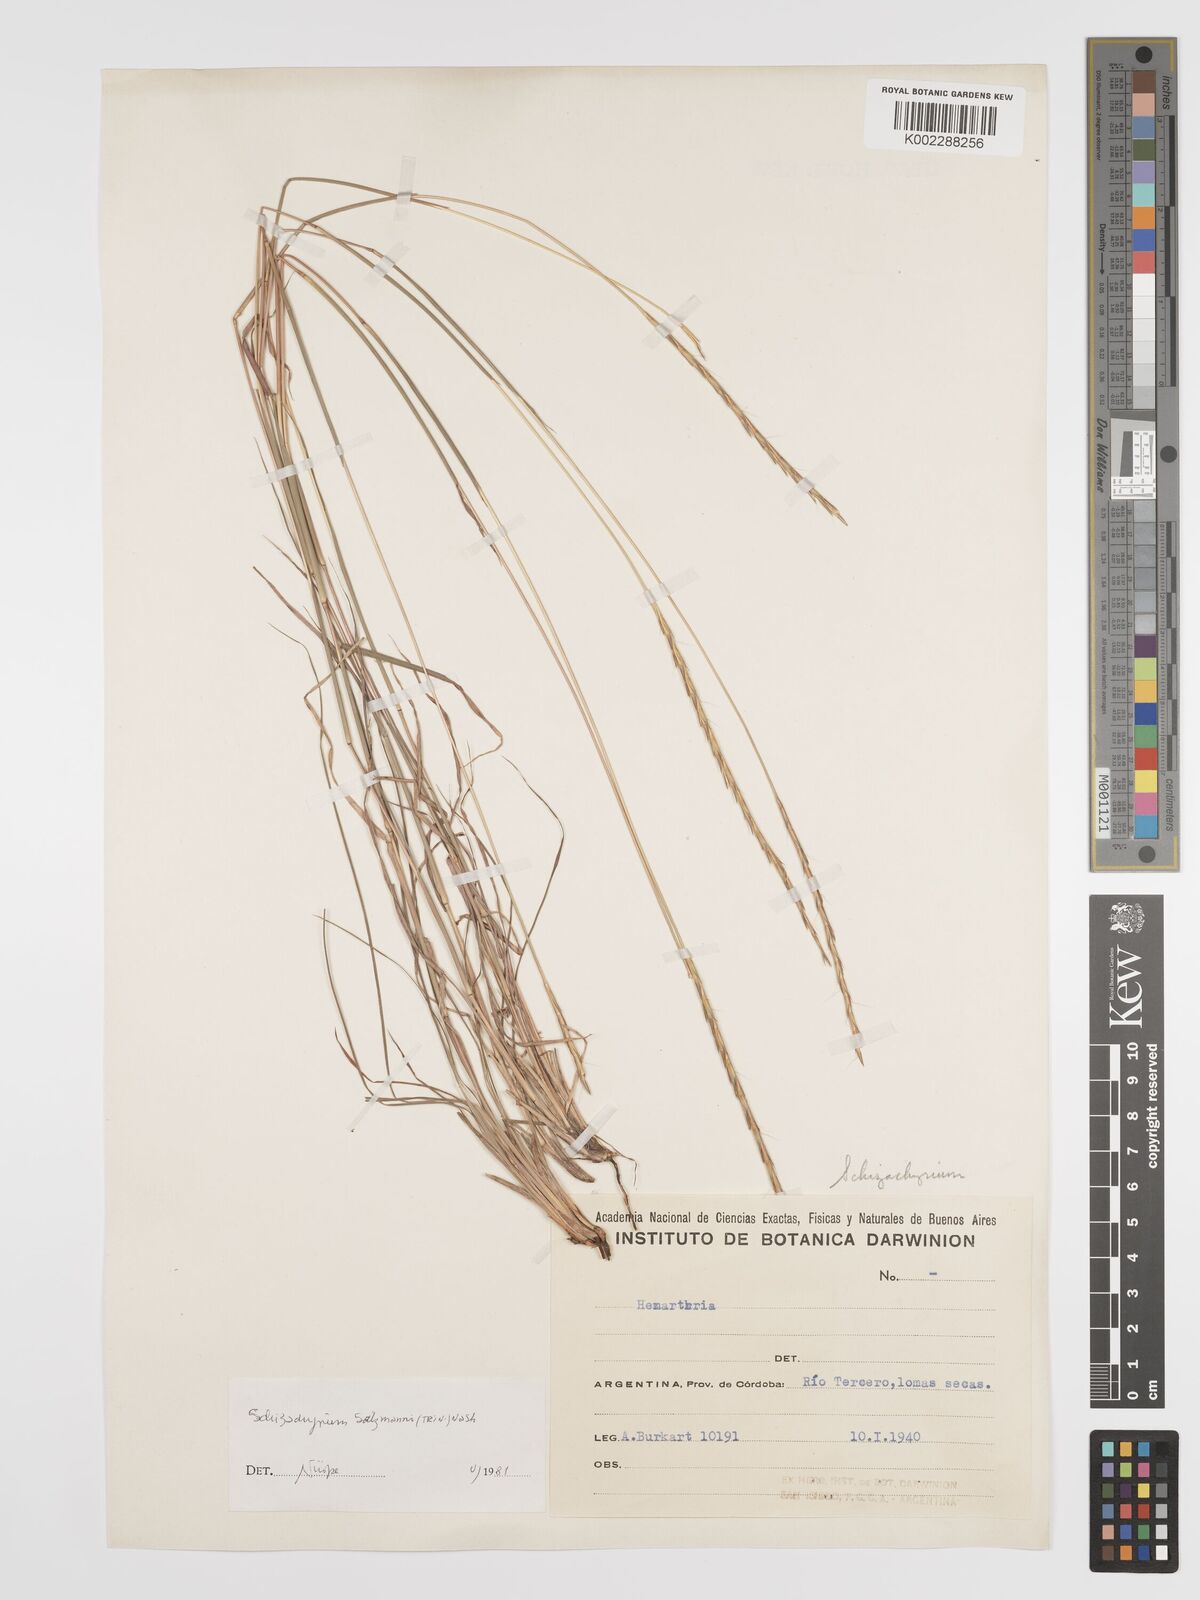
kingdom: Plantae
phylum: Tracheophyta
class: Liliopsida
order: Poales
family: Poaceae
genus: Andropogon
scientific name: Andropogon salzmannii
